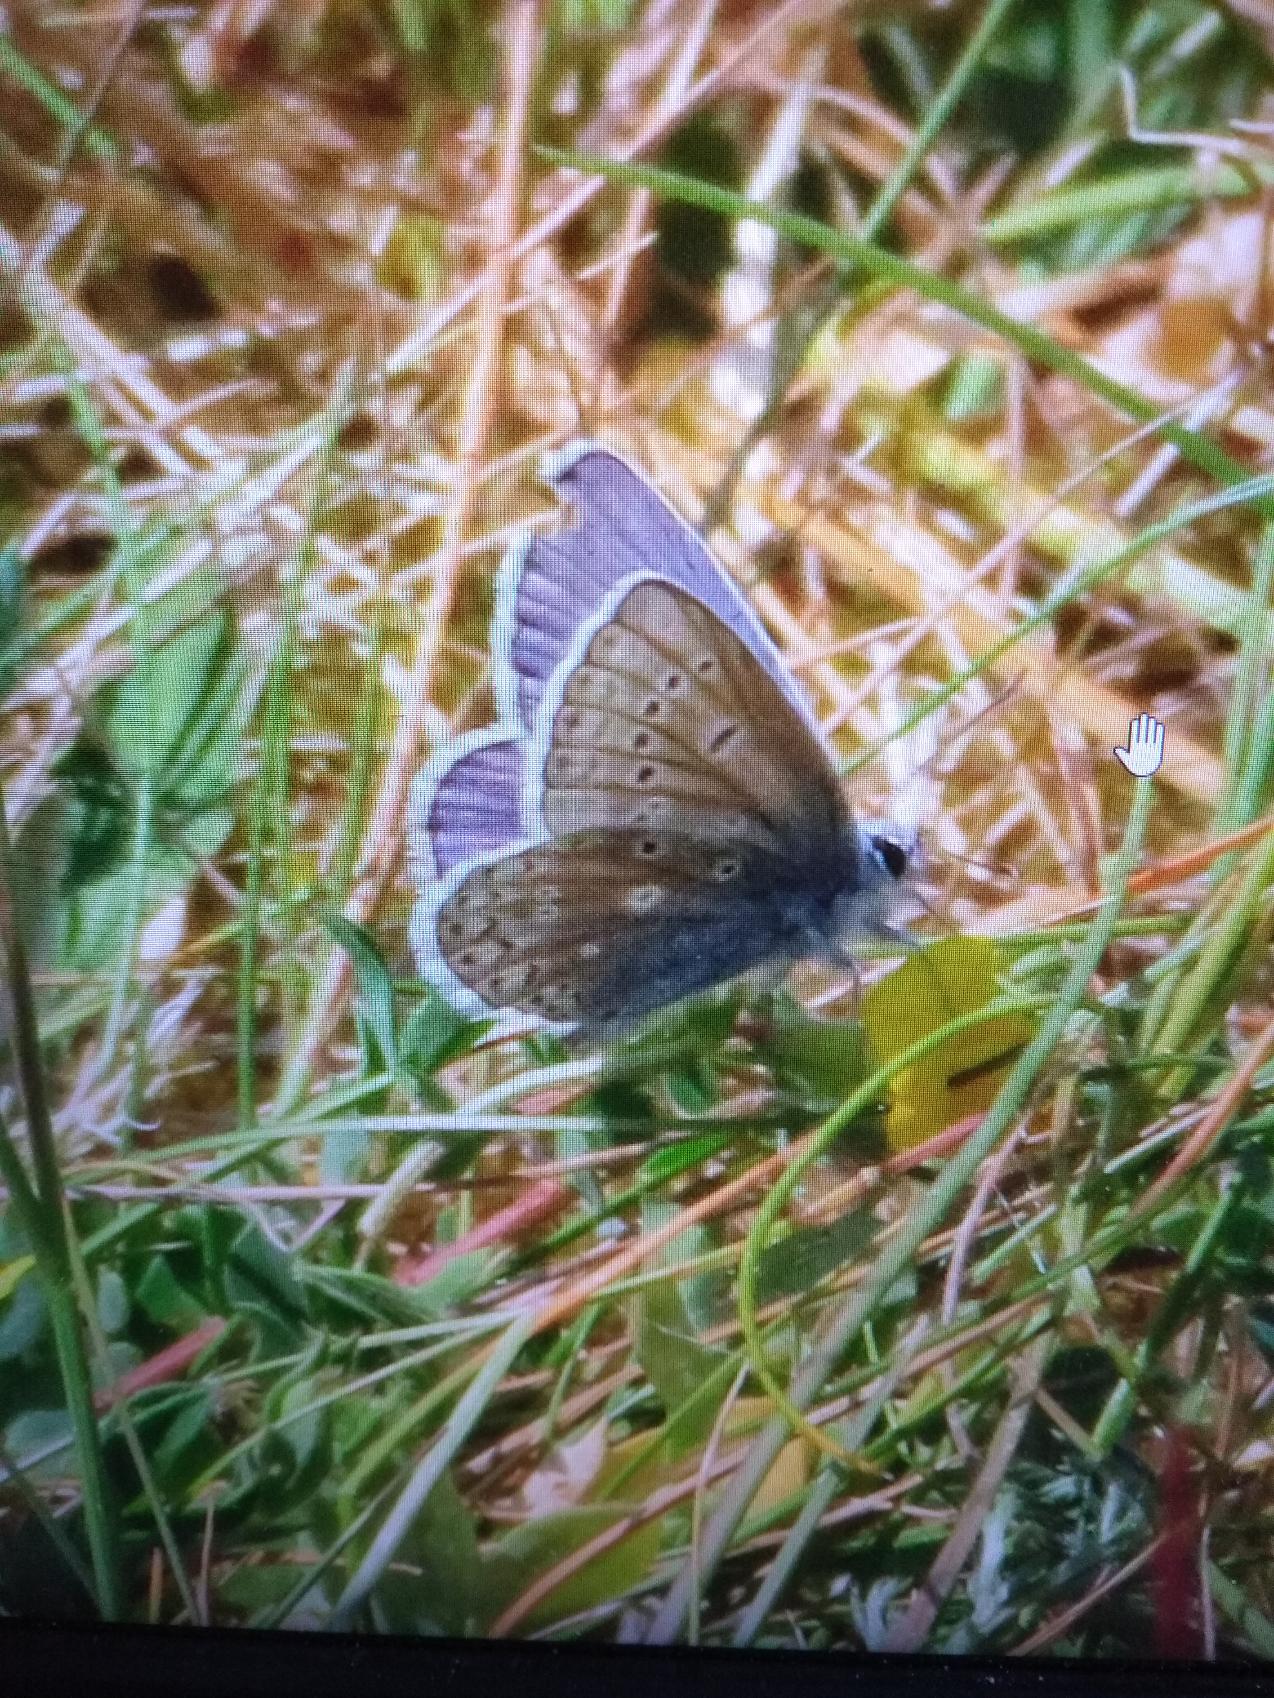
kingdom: Animalia
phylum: Arthropoda
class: Insecta
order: Lepidoptera
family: Lycaenidae
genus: Polyommatus
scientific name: Polyommatus icarus
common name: Almindelig blåfugl
